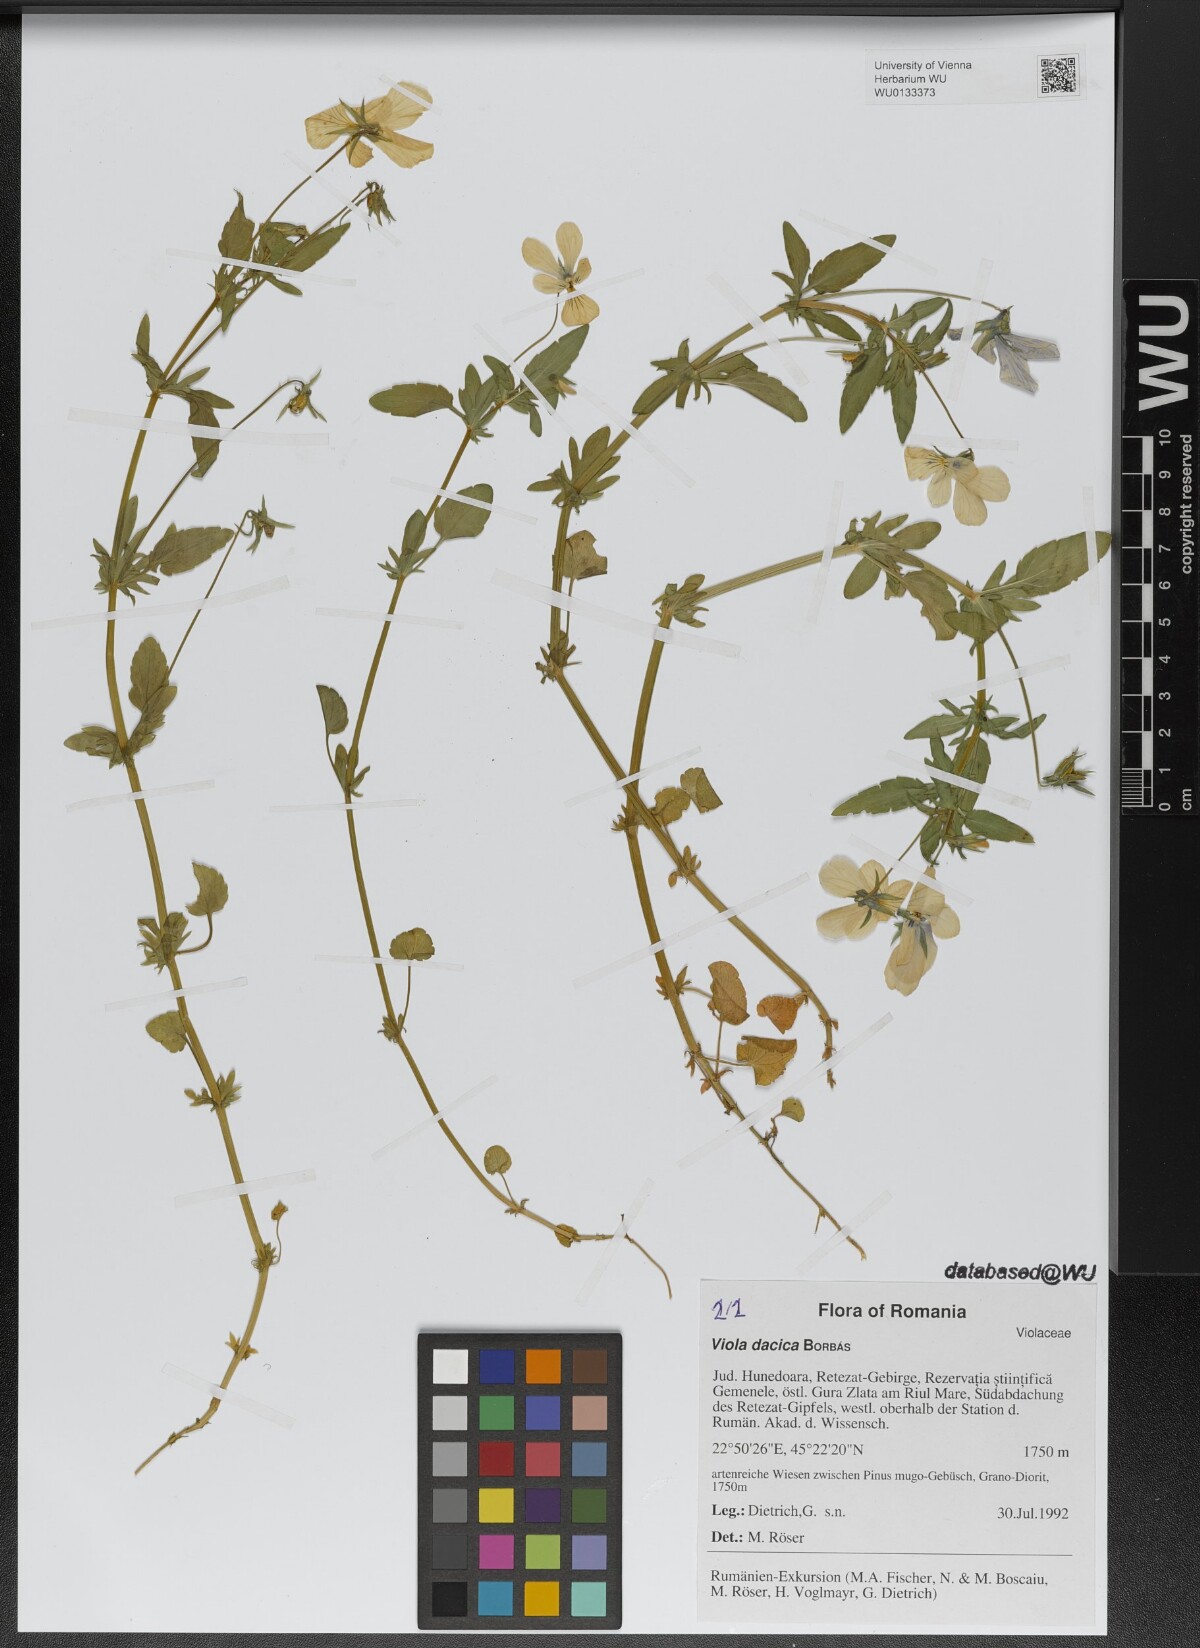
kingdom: Plantae
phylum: Tracheophyta
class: Magnoliopsida
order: Malpighiales
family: Violaceae
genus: Viola
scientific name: Viola dacica
